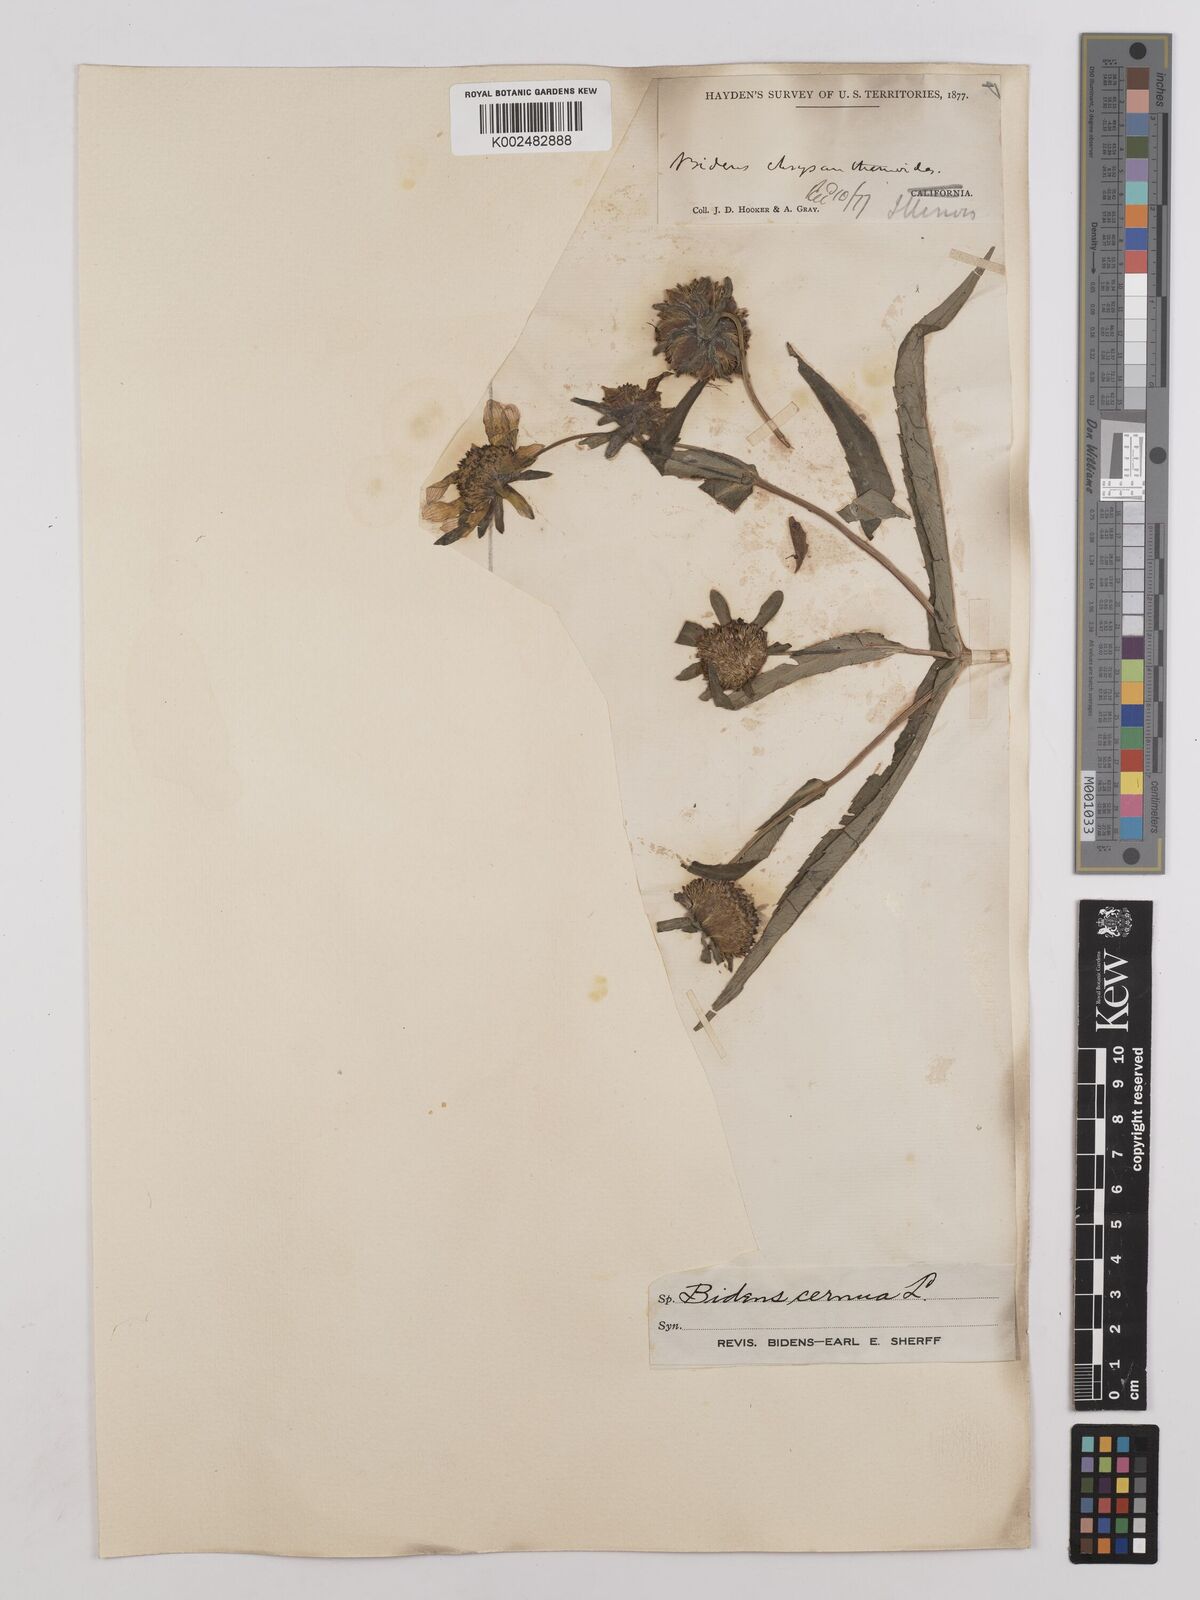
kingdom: Plantae
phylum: Tracheophyta
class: Magnoliopsida
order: Asterales
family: Asteraceae
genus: Bidens
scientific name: Bidens cernua
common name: Nodding bur-marigold
